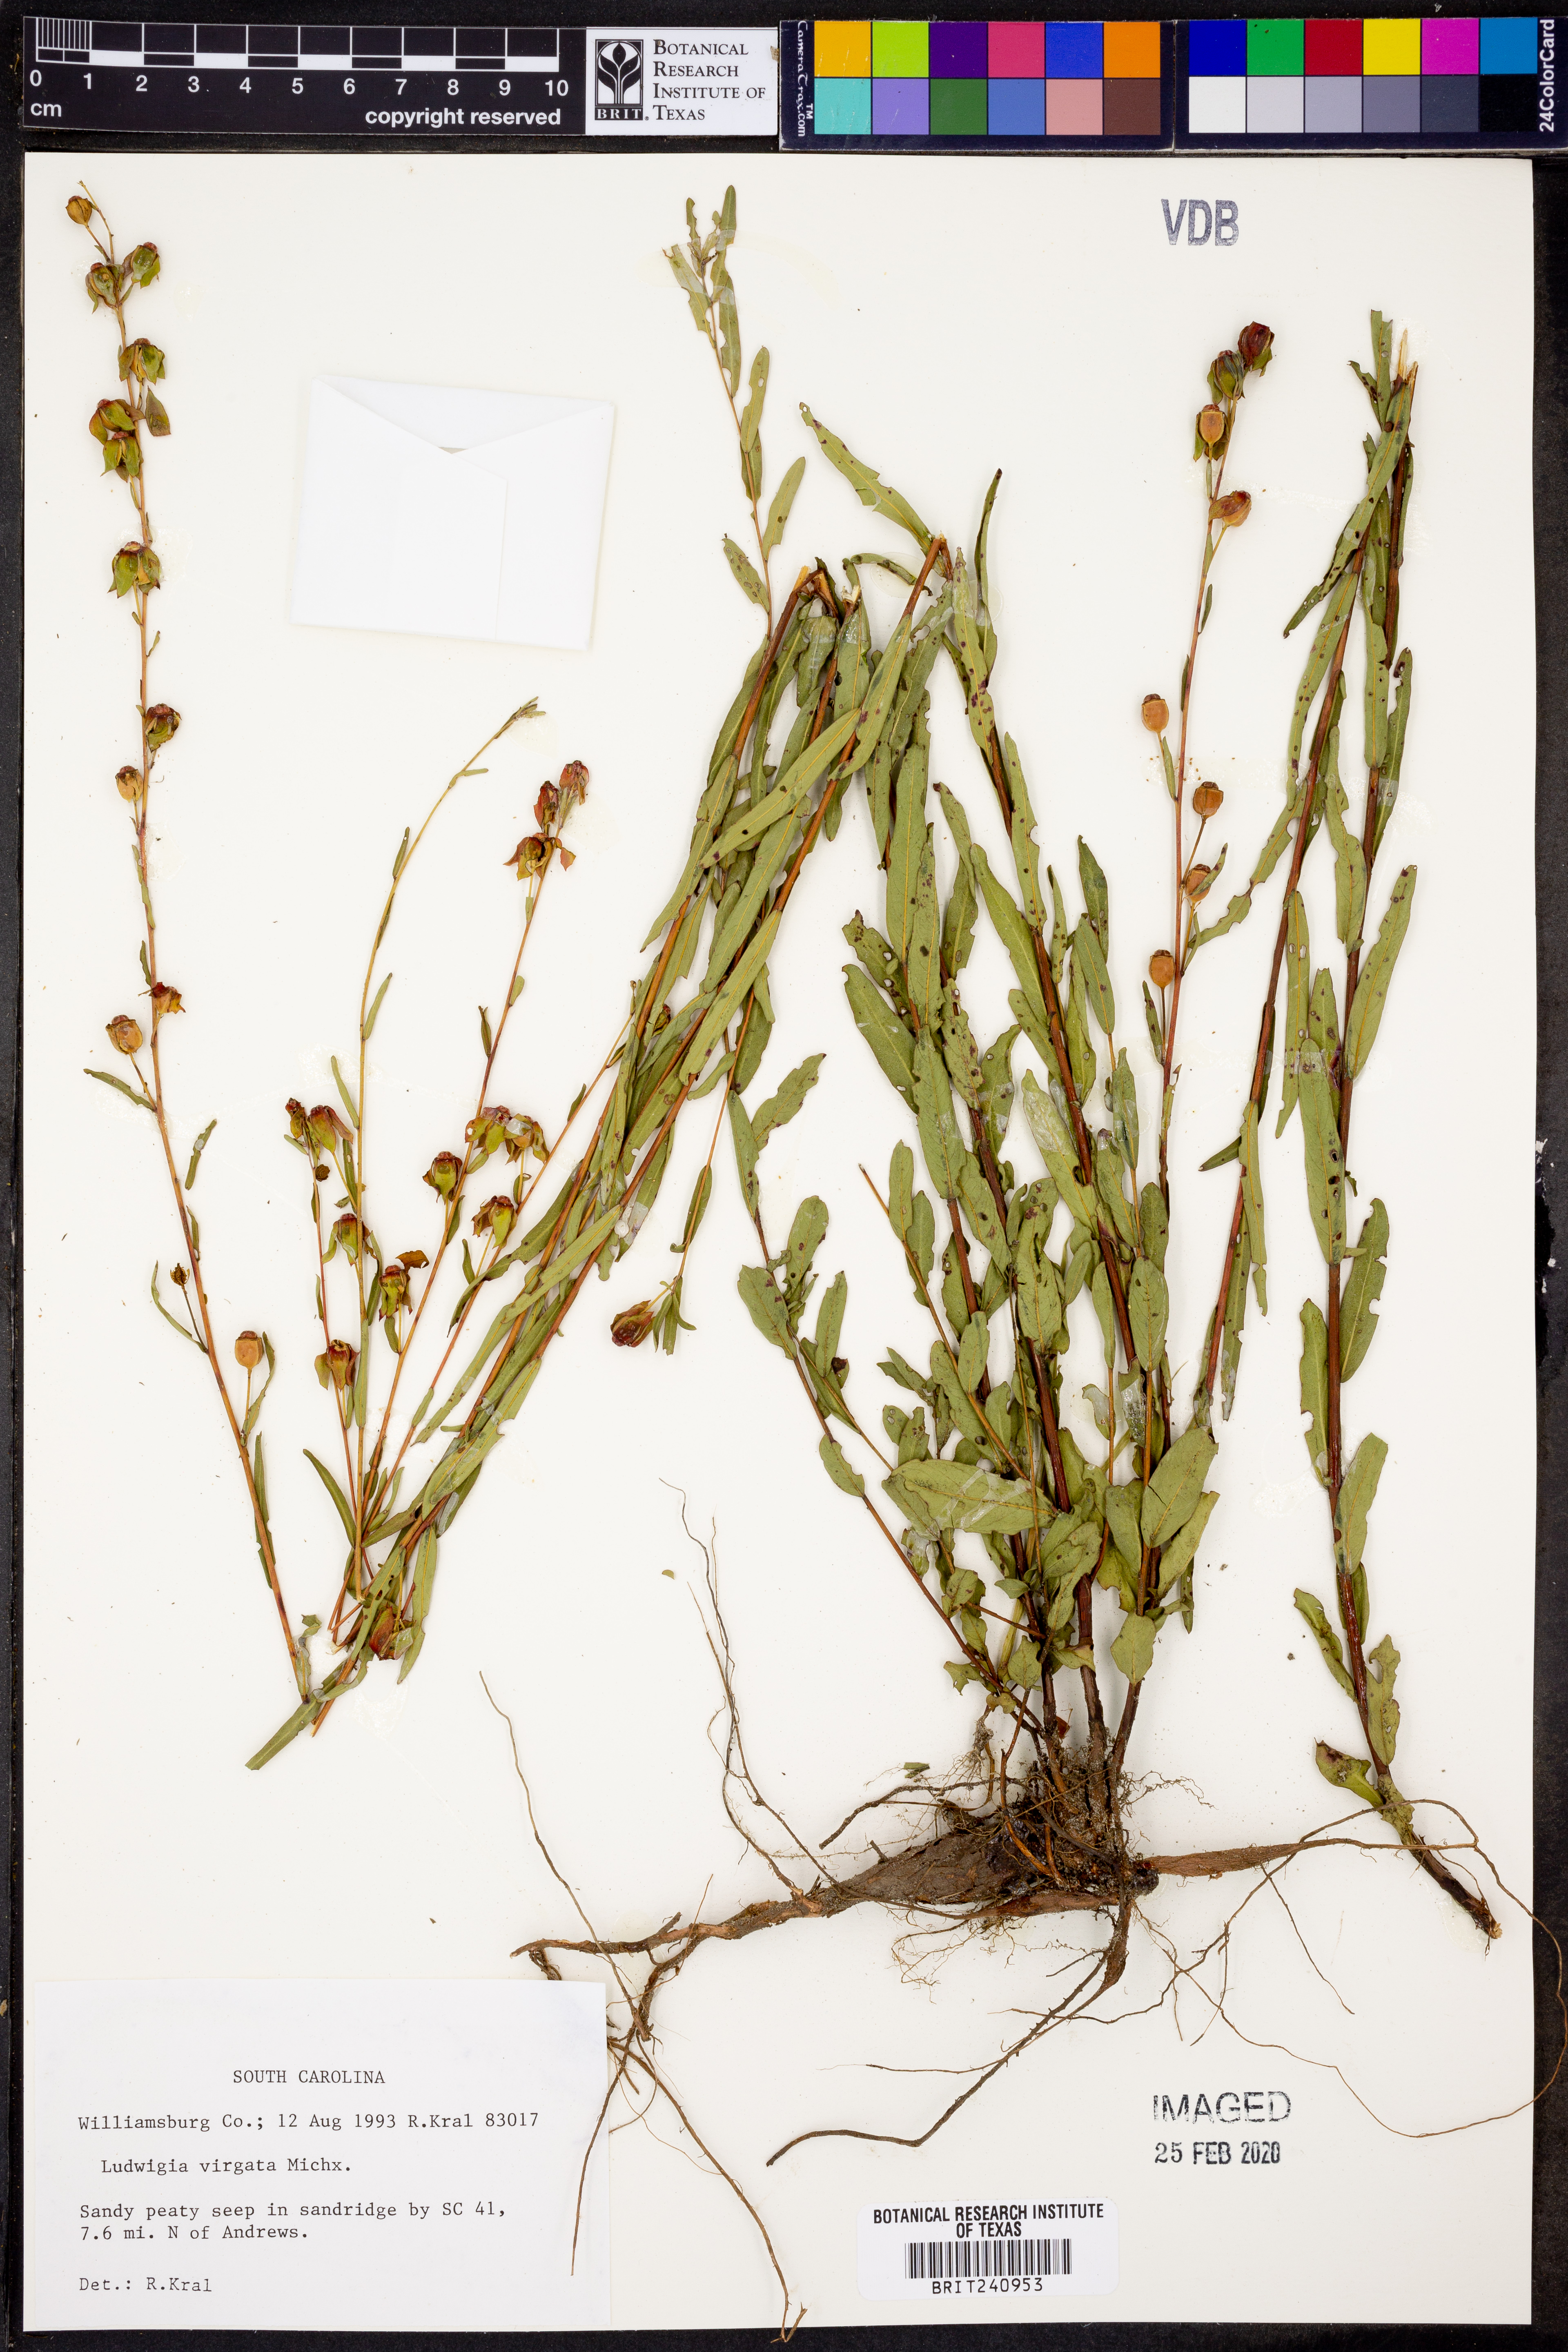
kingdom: Plantae
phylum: Tracheophyta
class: Magnoliopsida
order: Myrtales
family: Onagraceae
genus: Ludwigia
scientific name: Ludwigia virgata
